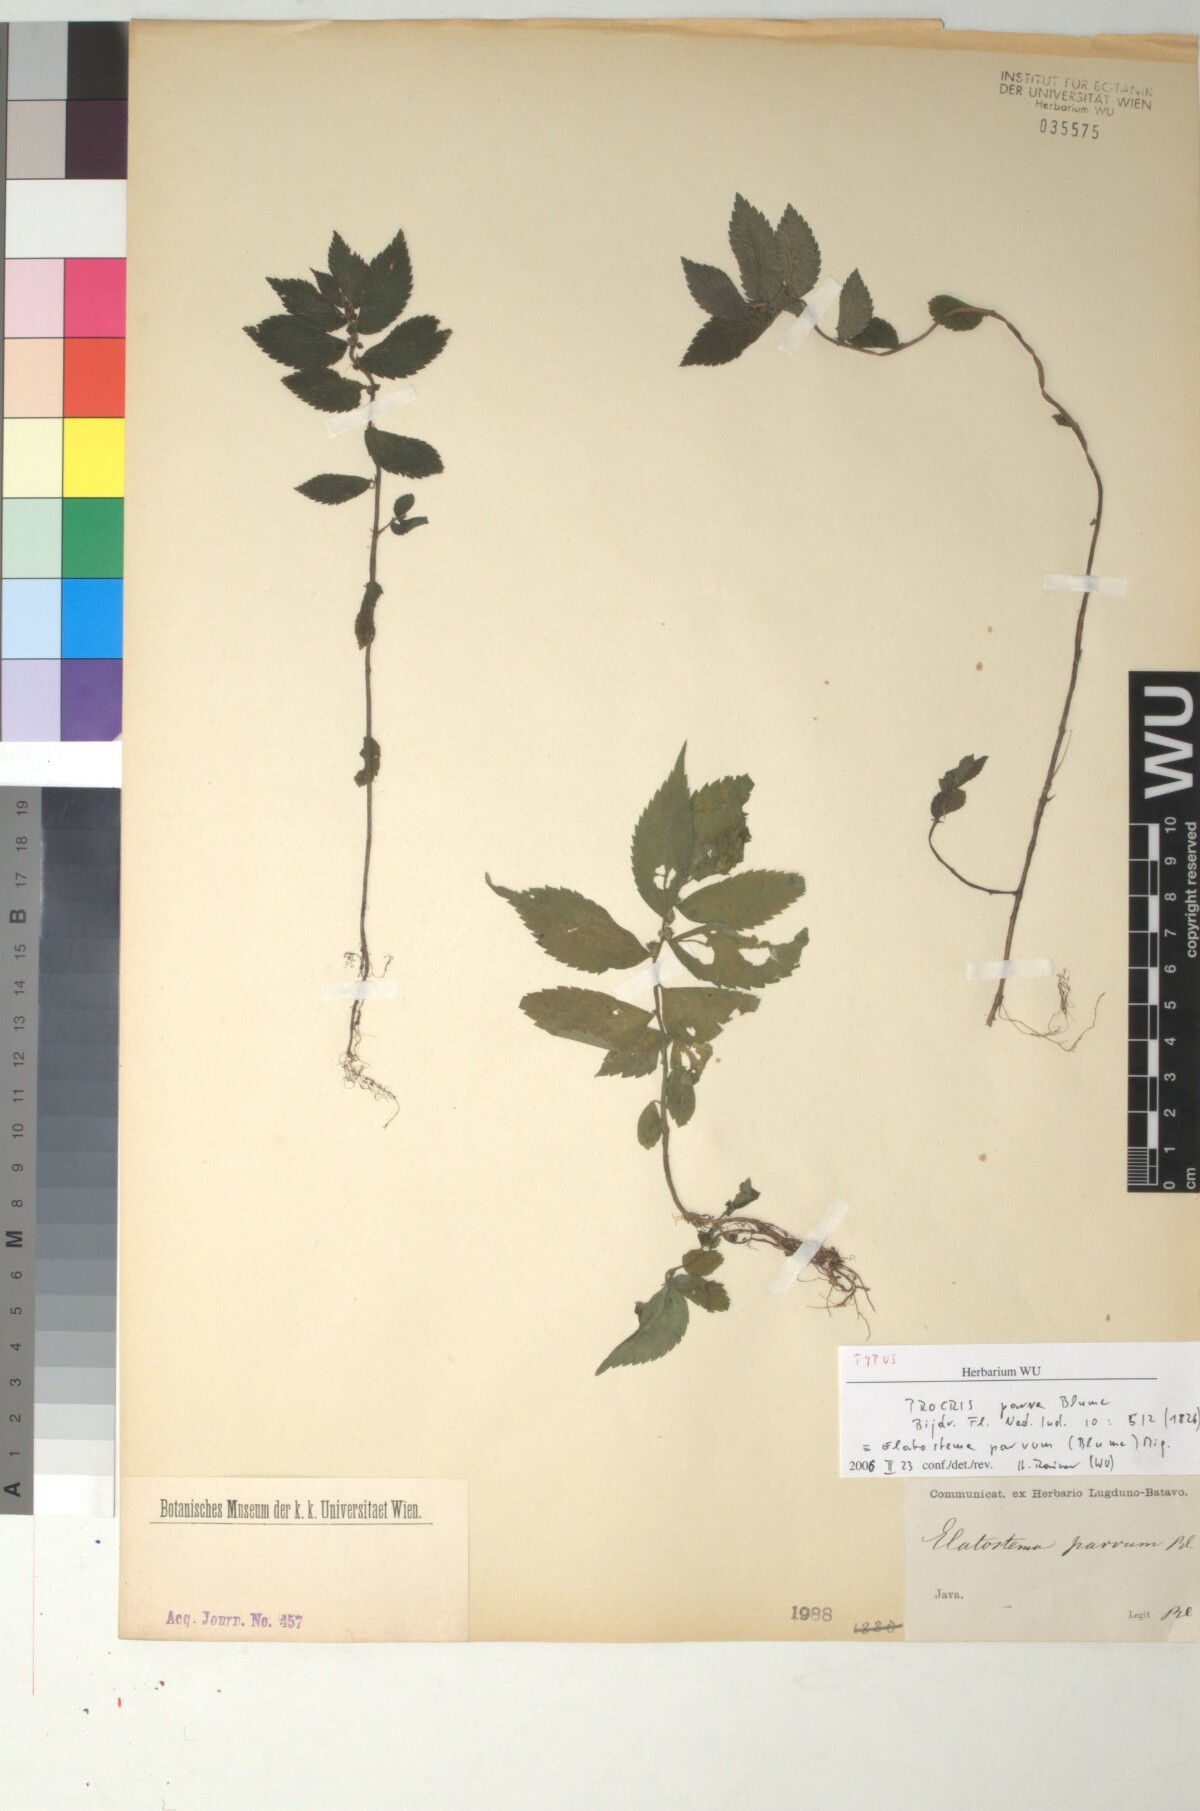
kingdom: Plantae
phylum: Tracheophyta
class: Magnoliopsida
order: Rosales
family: Urticaceae
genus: Elatostema
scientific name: Elatostema parvum
